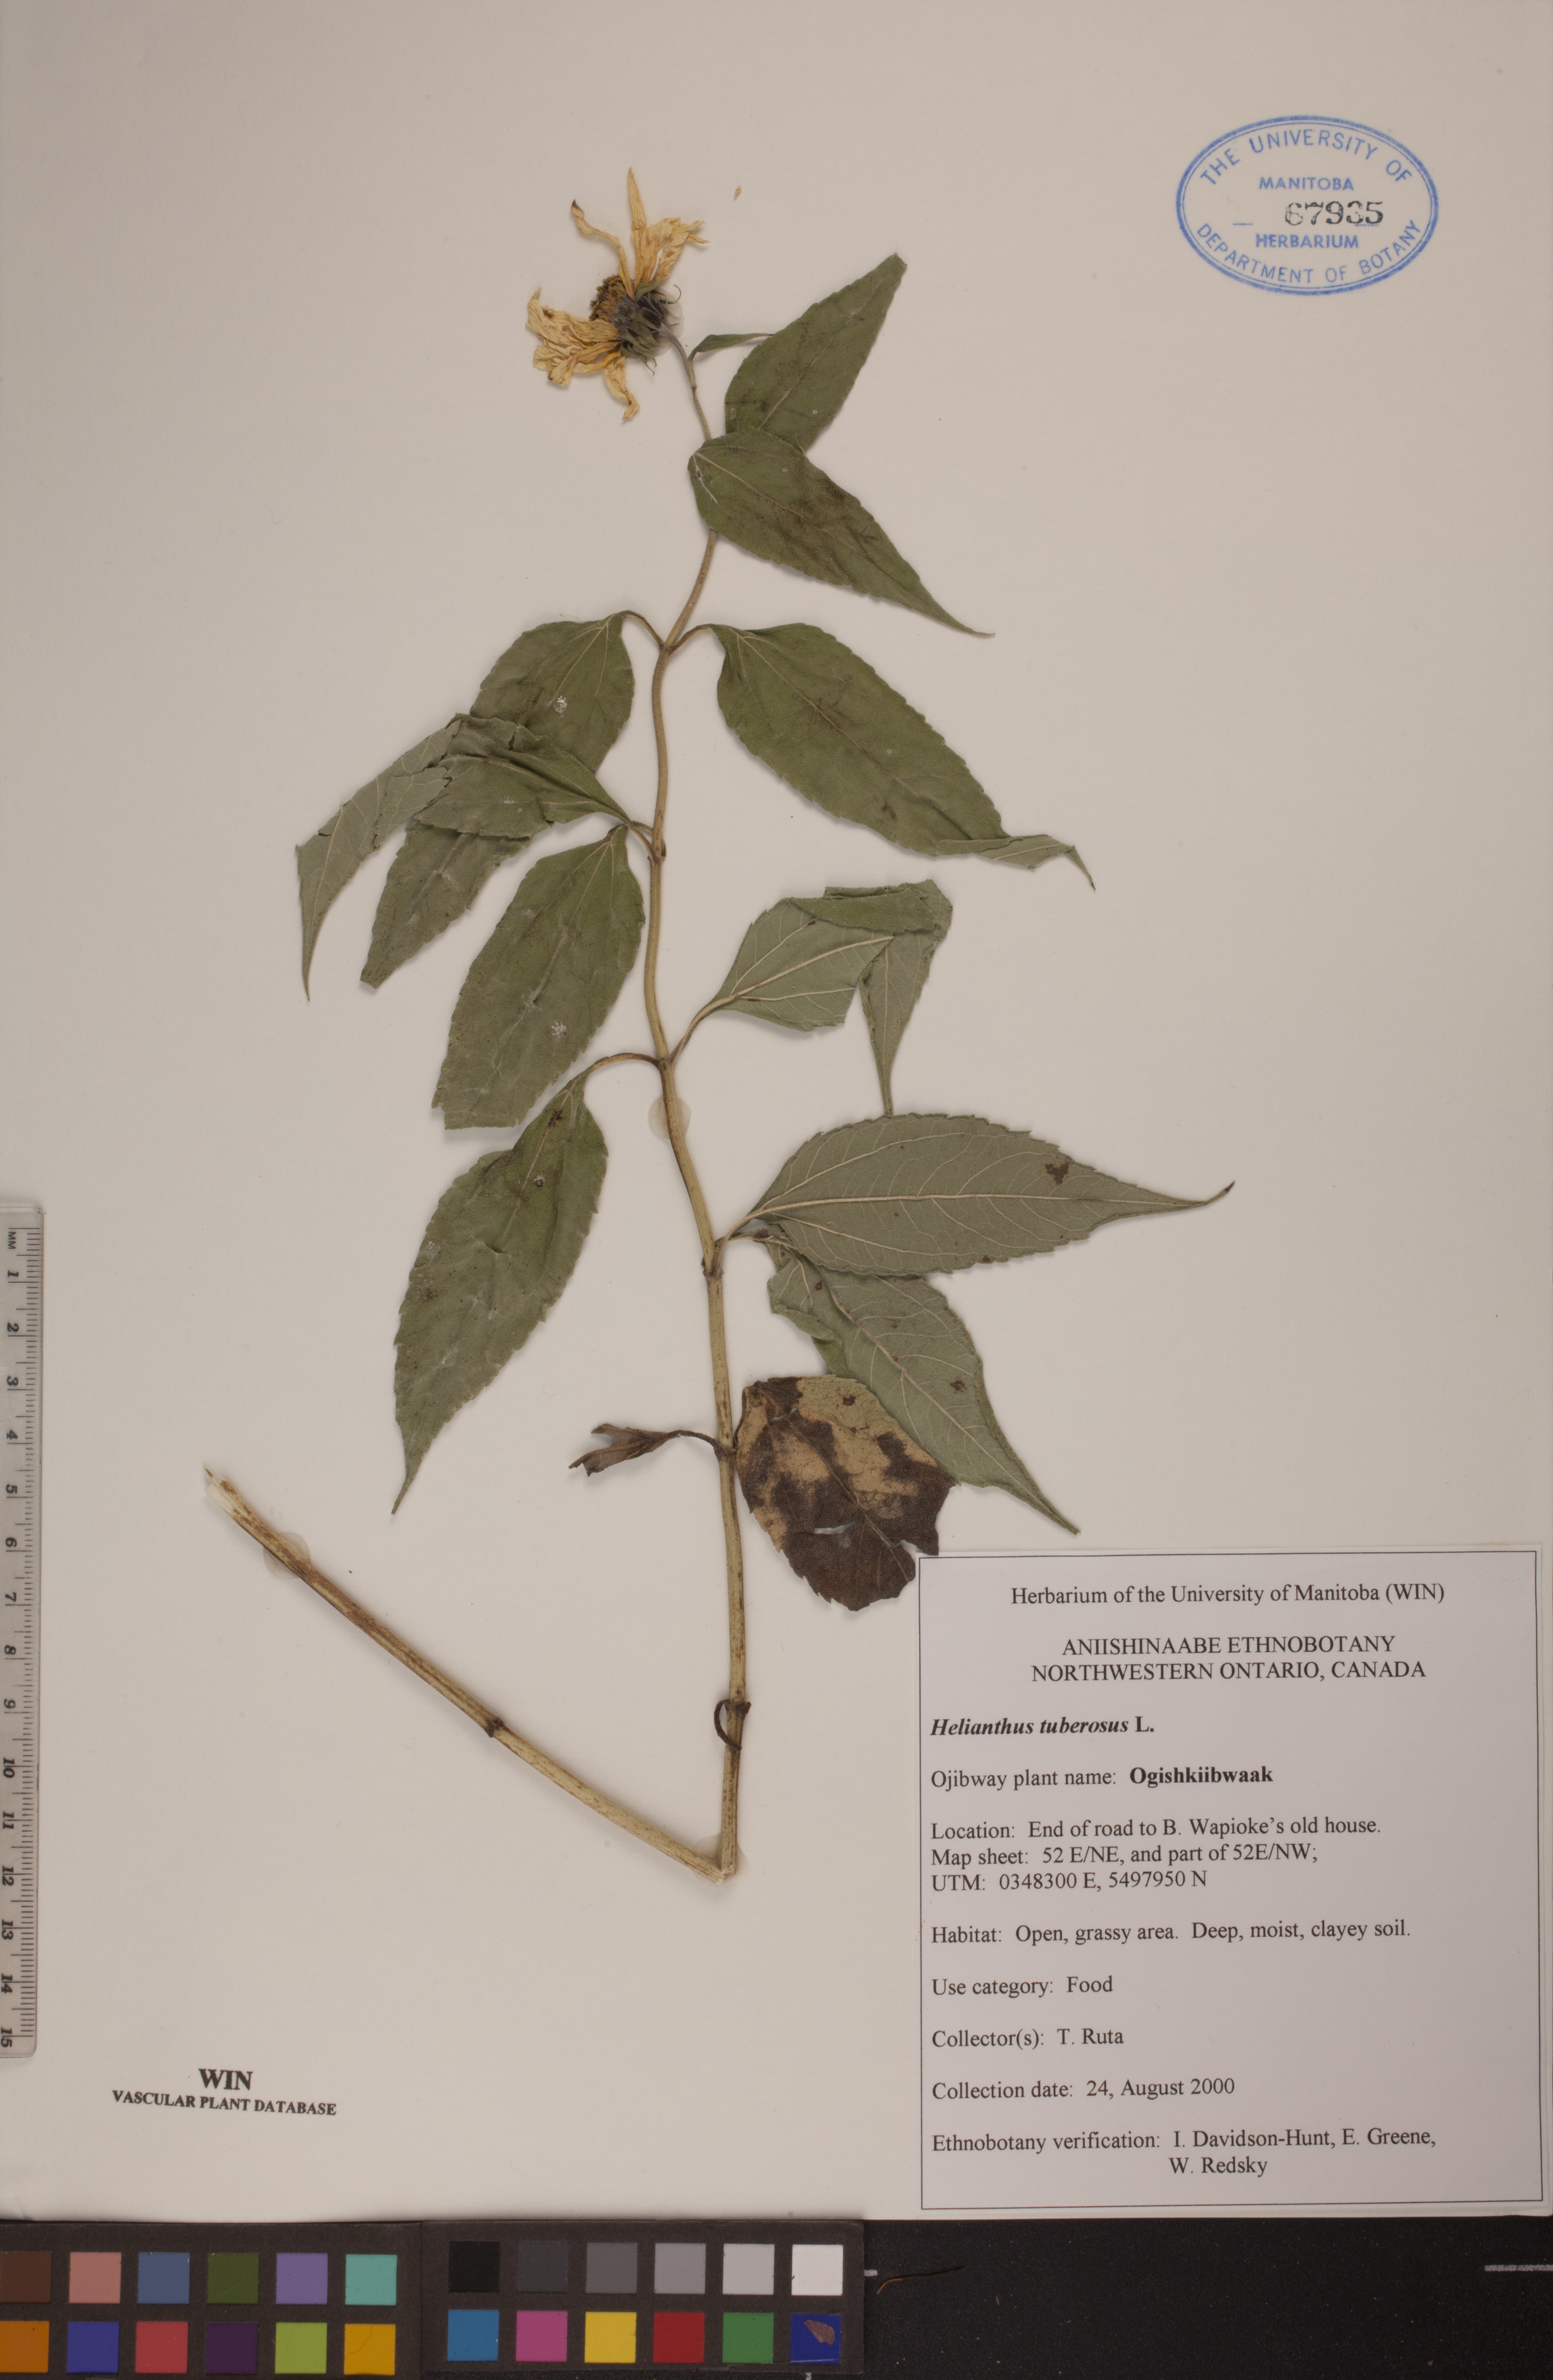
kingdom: Plantae
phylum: Tracheophyta
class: Magnoliopsida
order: Asterales
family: Asteraceae
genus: Helianthus
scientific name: Helianthus tuberosus
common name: Jerusalem artichoke
